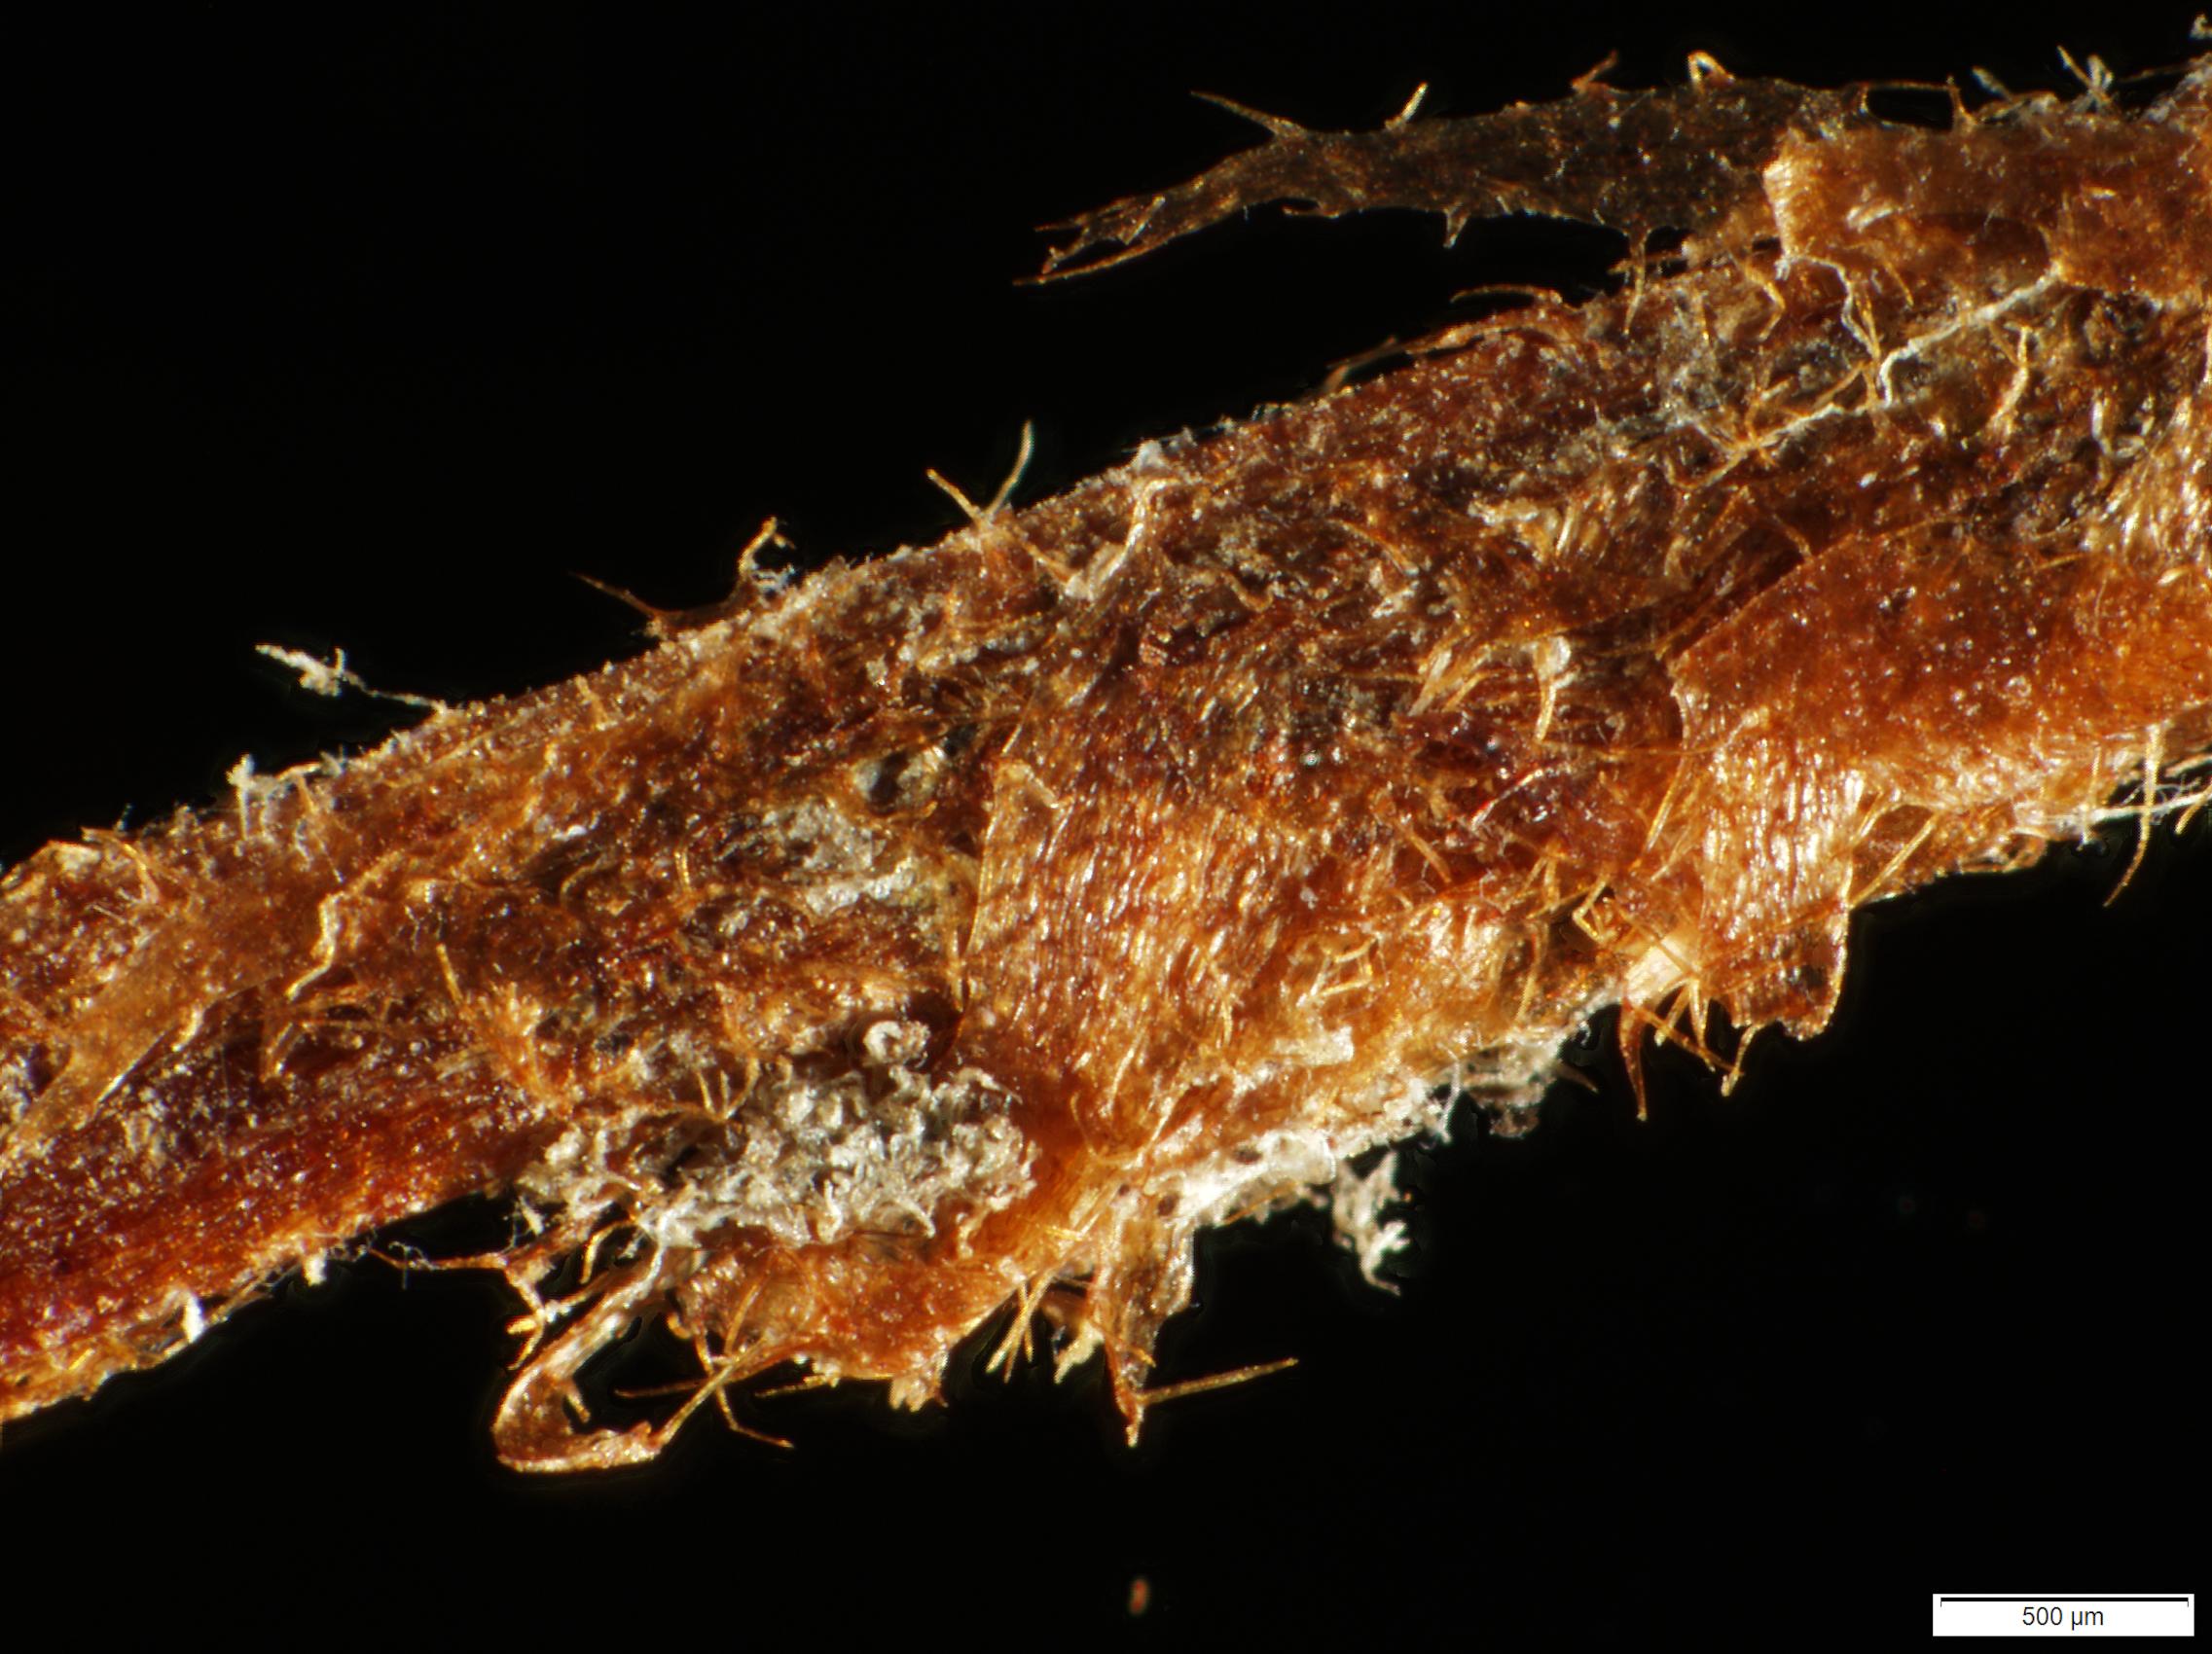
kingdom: Plantae
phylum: Tracheophyta
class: Polypodiopsida
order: Polypodiales
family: Dryopteridaceae
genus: Elaphoglossum
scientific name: Elaphoglossum rufidulum
